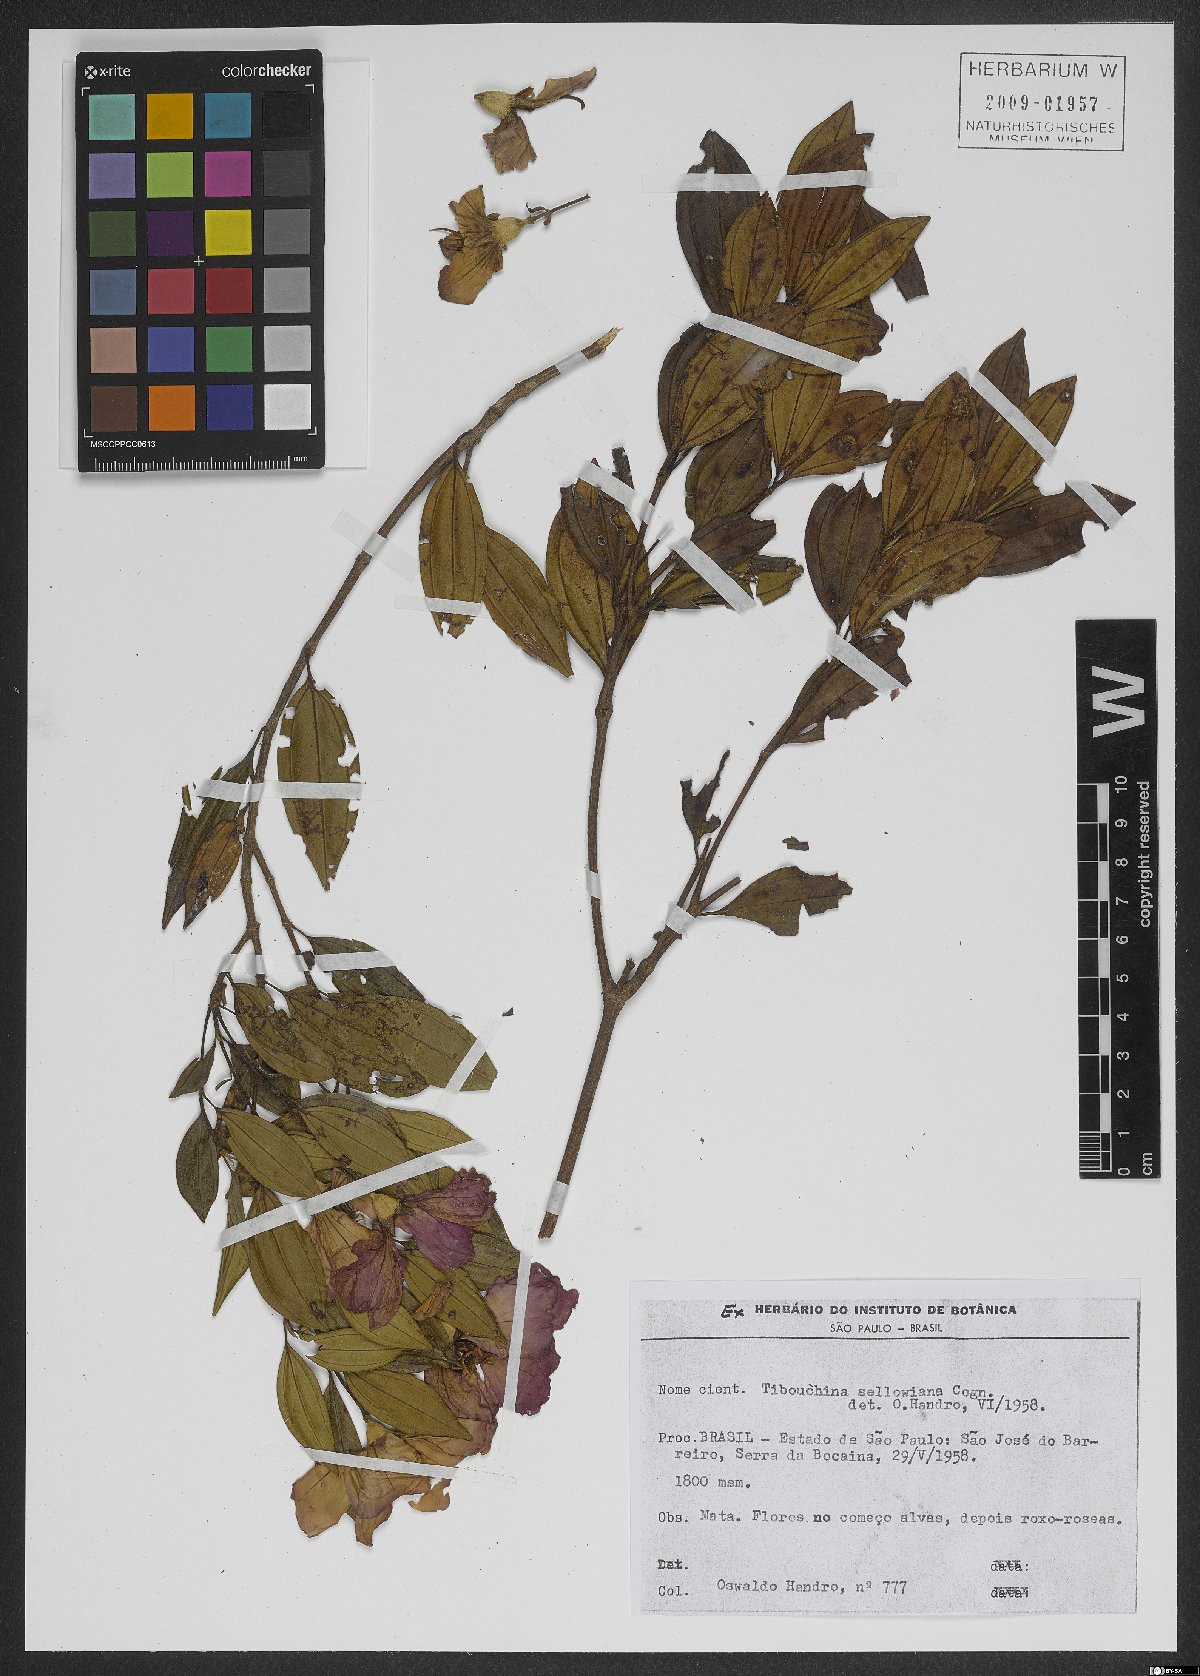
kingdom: Plantae
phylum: Tracheophyta
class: Magnoliopsida
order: Myrtales
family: Melastomataceae
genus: Pleroma
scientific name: Pleroma sellowianum
